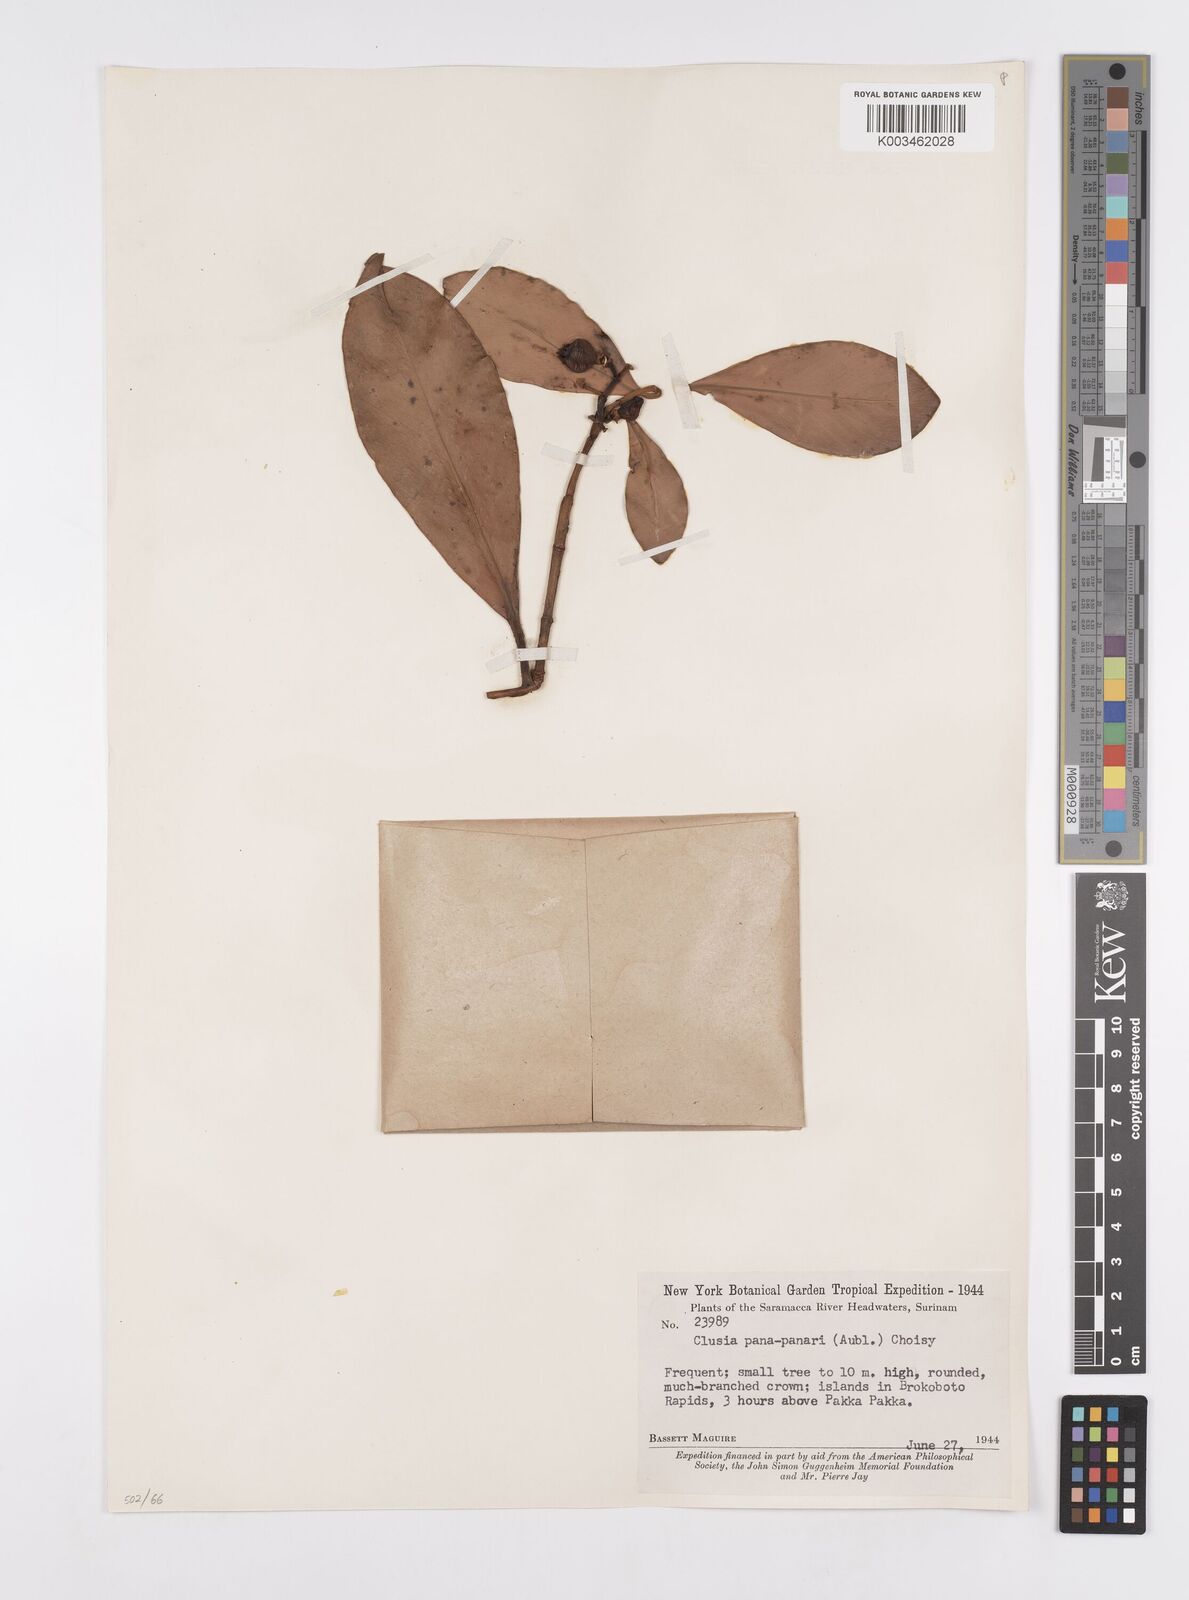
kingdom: Plantae
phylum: Tracheophyta
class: Magnoliopsida
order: Malpighiales
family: Clusiaceae
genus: Clusia
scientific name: Clusia panapanari
